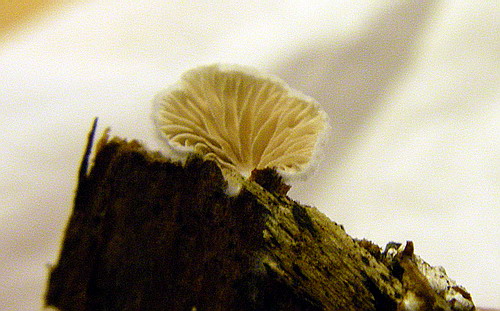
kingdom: Fungi
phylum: Basidiomycota
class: Agaricomycetes
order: Agaricales
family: Crepidotaceae
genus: Crepidotus
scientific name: Crepidotus variabilis
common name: forskelligformet muslingesvamp
